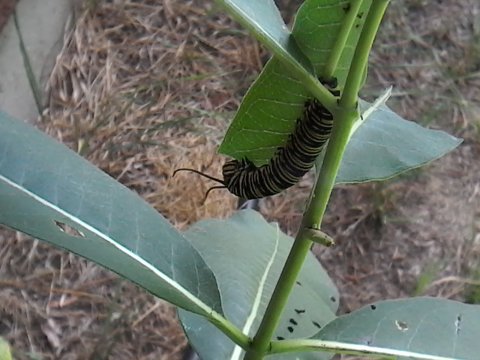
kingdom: Animalia
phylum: Arthropoda
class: Insecta
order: Lepidoptera
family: Nymphalidae
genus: Danaus
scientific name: Danaus plexippus
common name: Monarch
